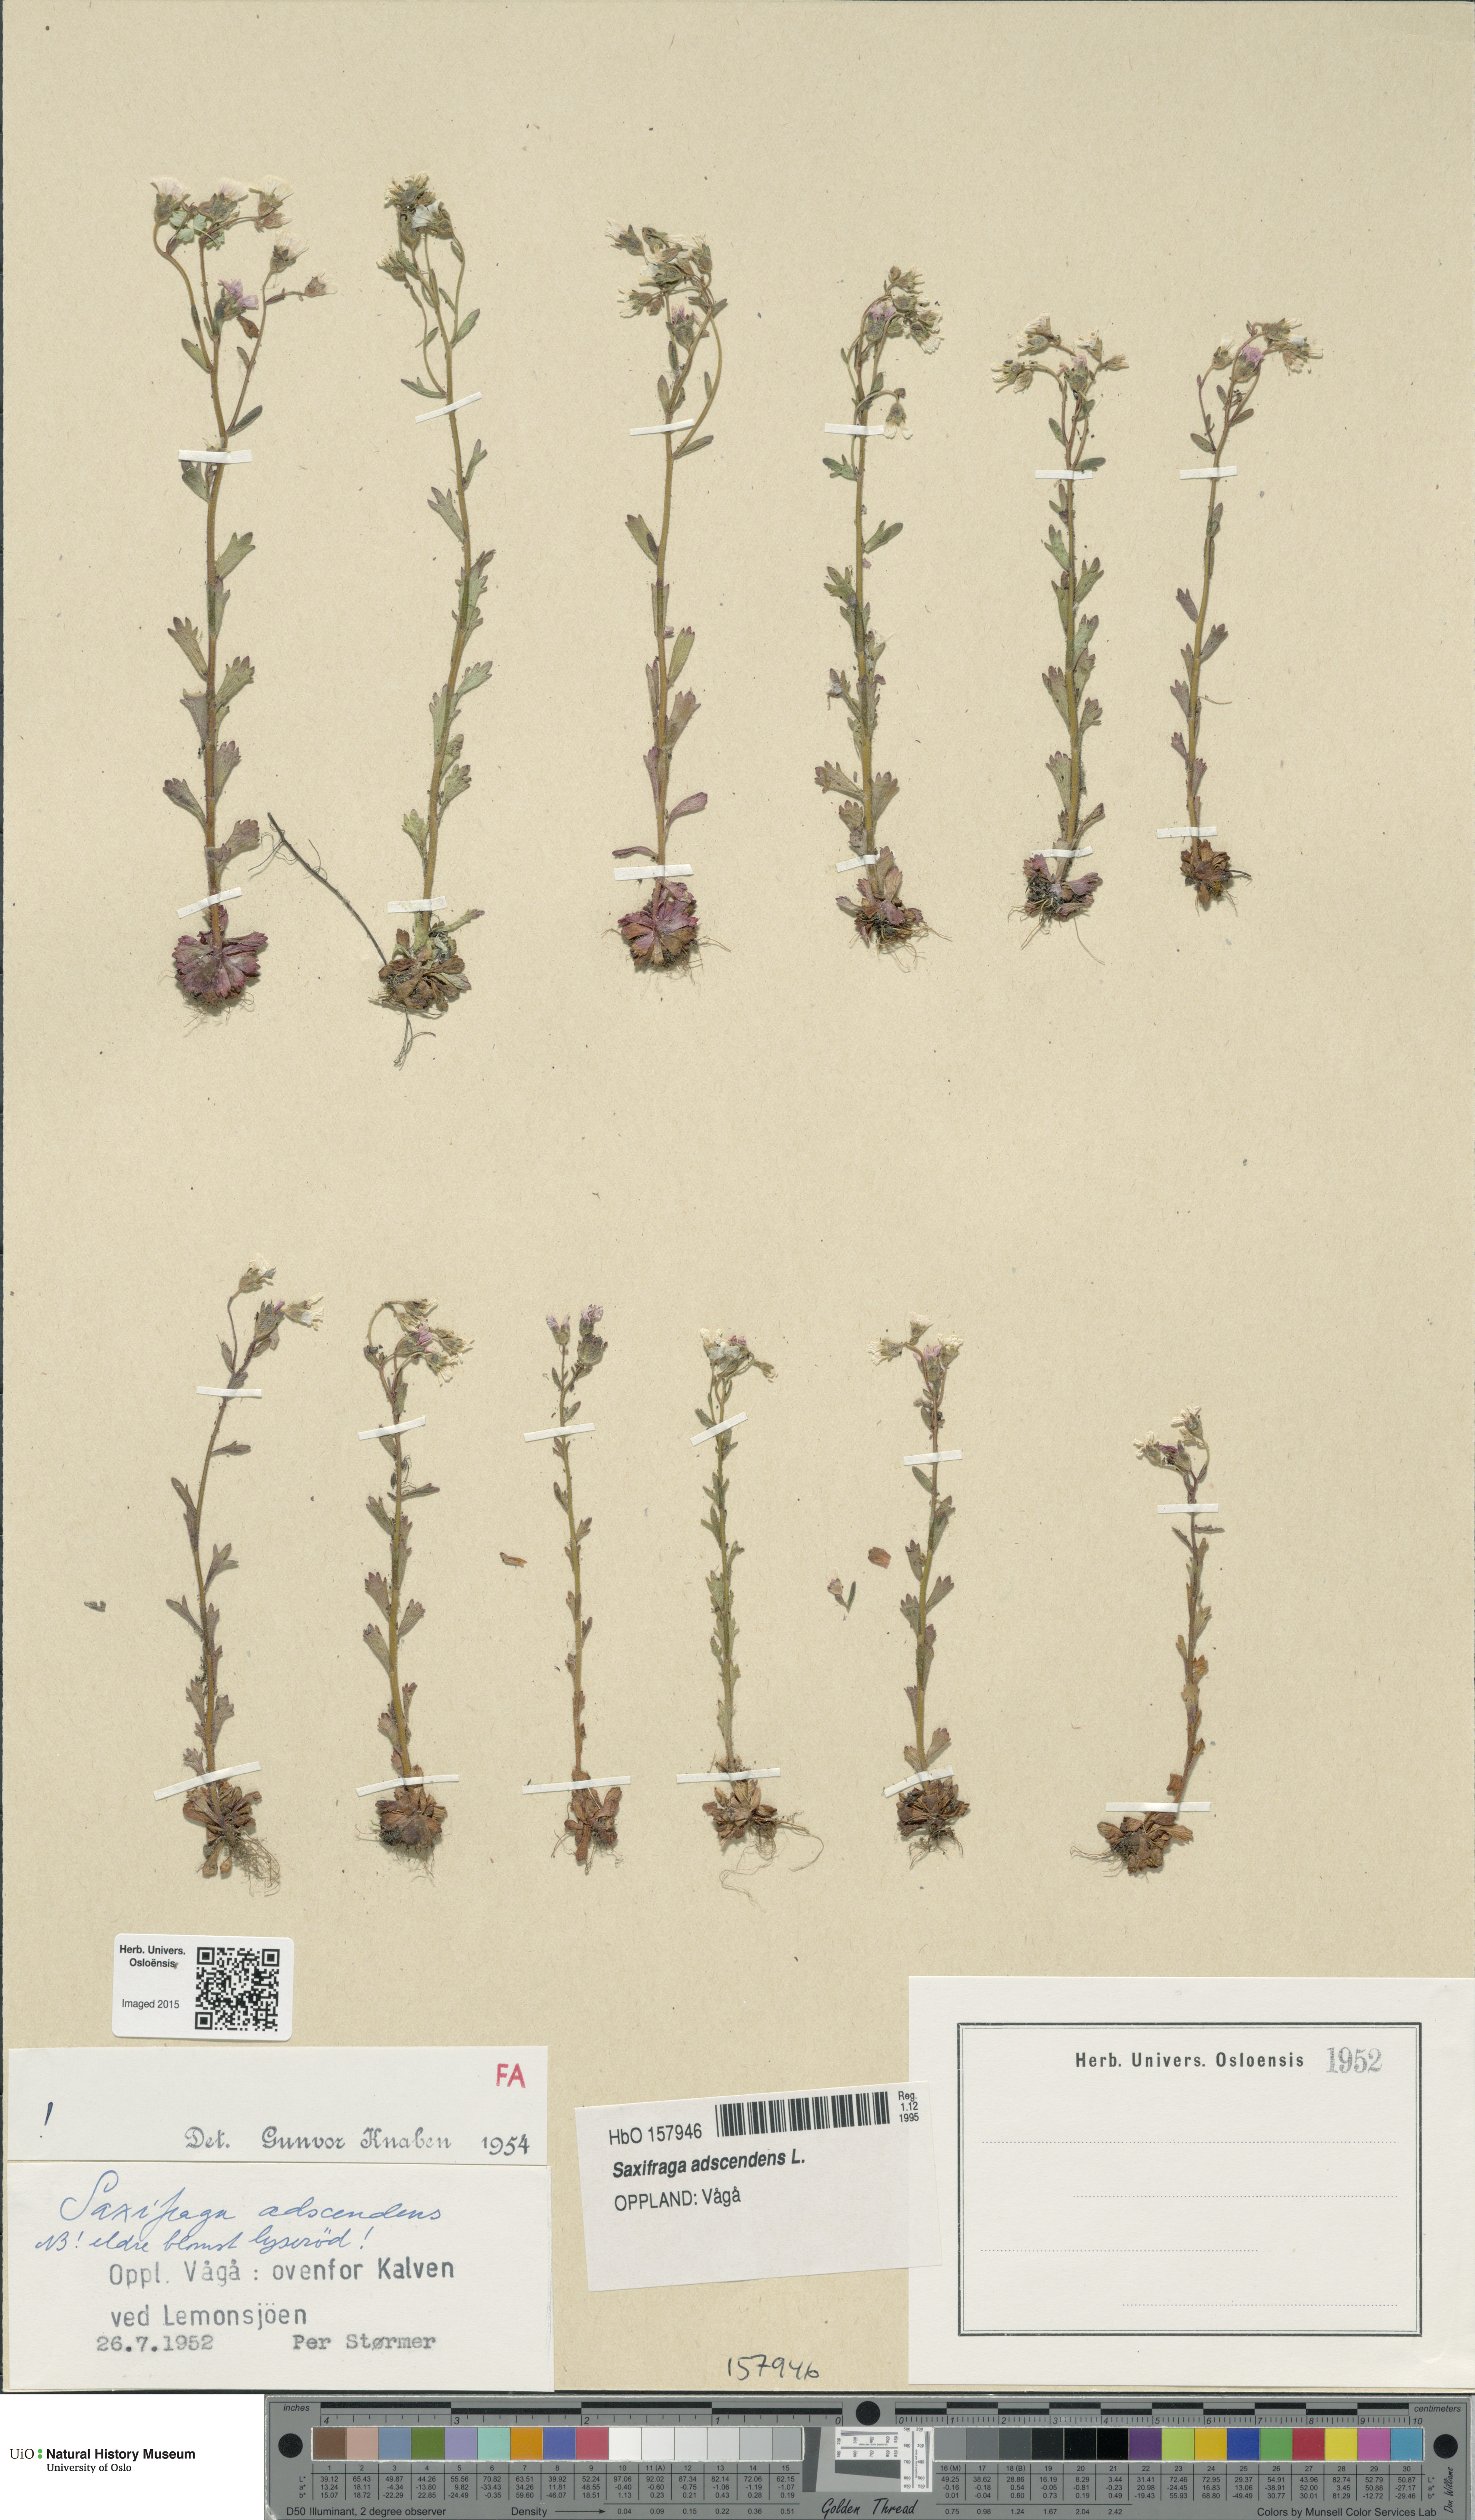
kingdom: Plantae
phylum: Tracheophyta
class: Magnoliopsida
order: Saxifragales
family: Saxifragaceae
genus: Saxifraga
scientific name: Saxifraga adscendens
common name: Ascending saxifrage
